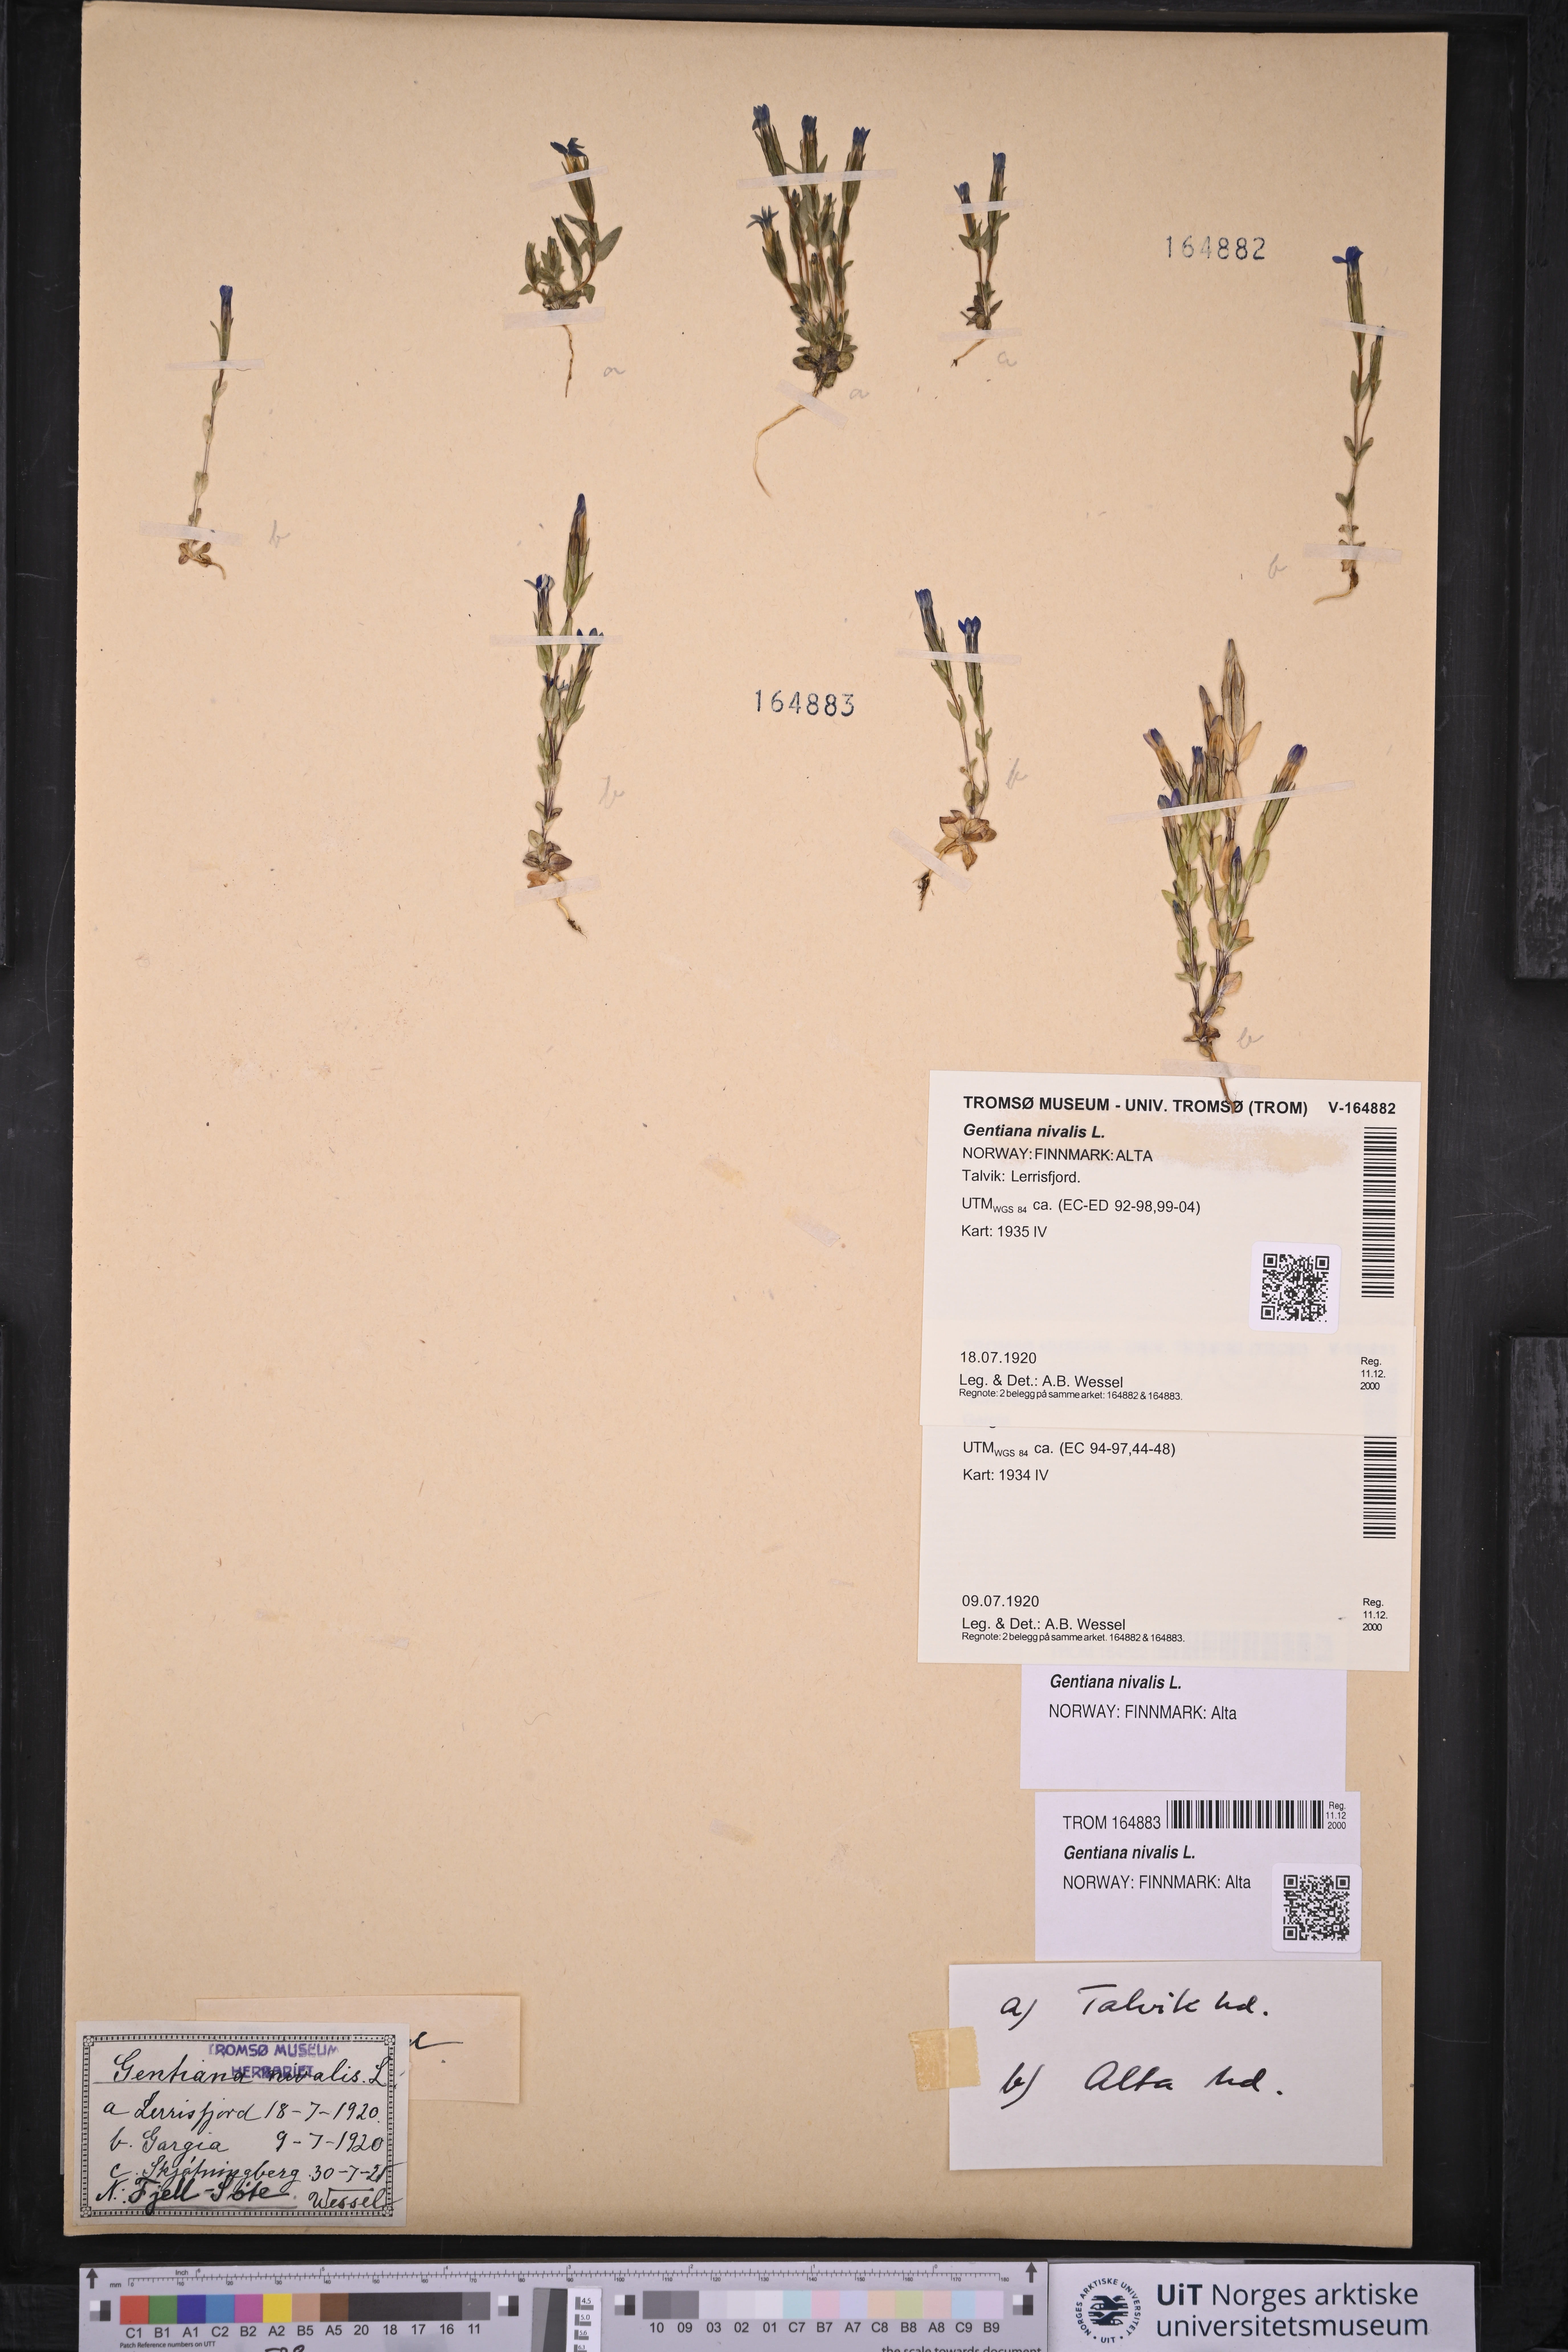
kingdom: Plantae
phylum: Tracheophyta
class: Magnoliopsida
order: Gentianales
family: Gentianaceae
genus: Gentiana
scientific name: Gentiana nivalis
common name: Alpine gentian
